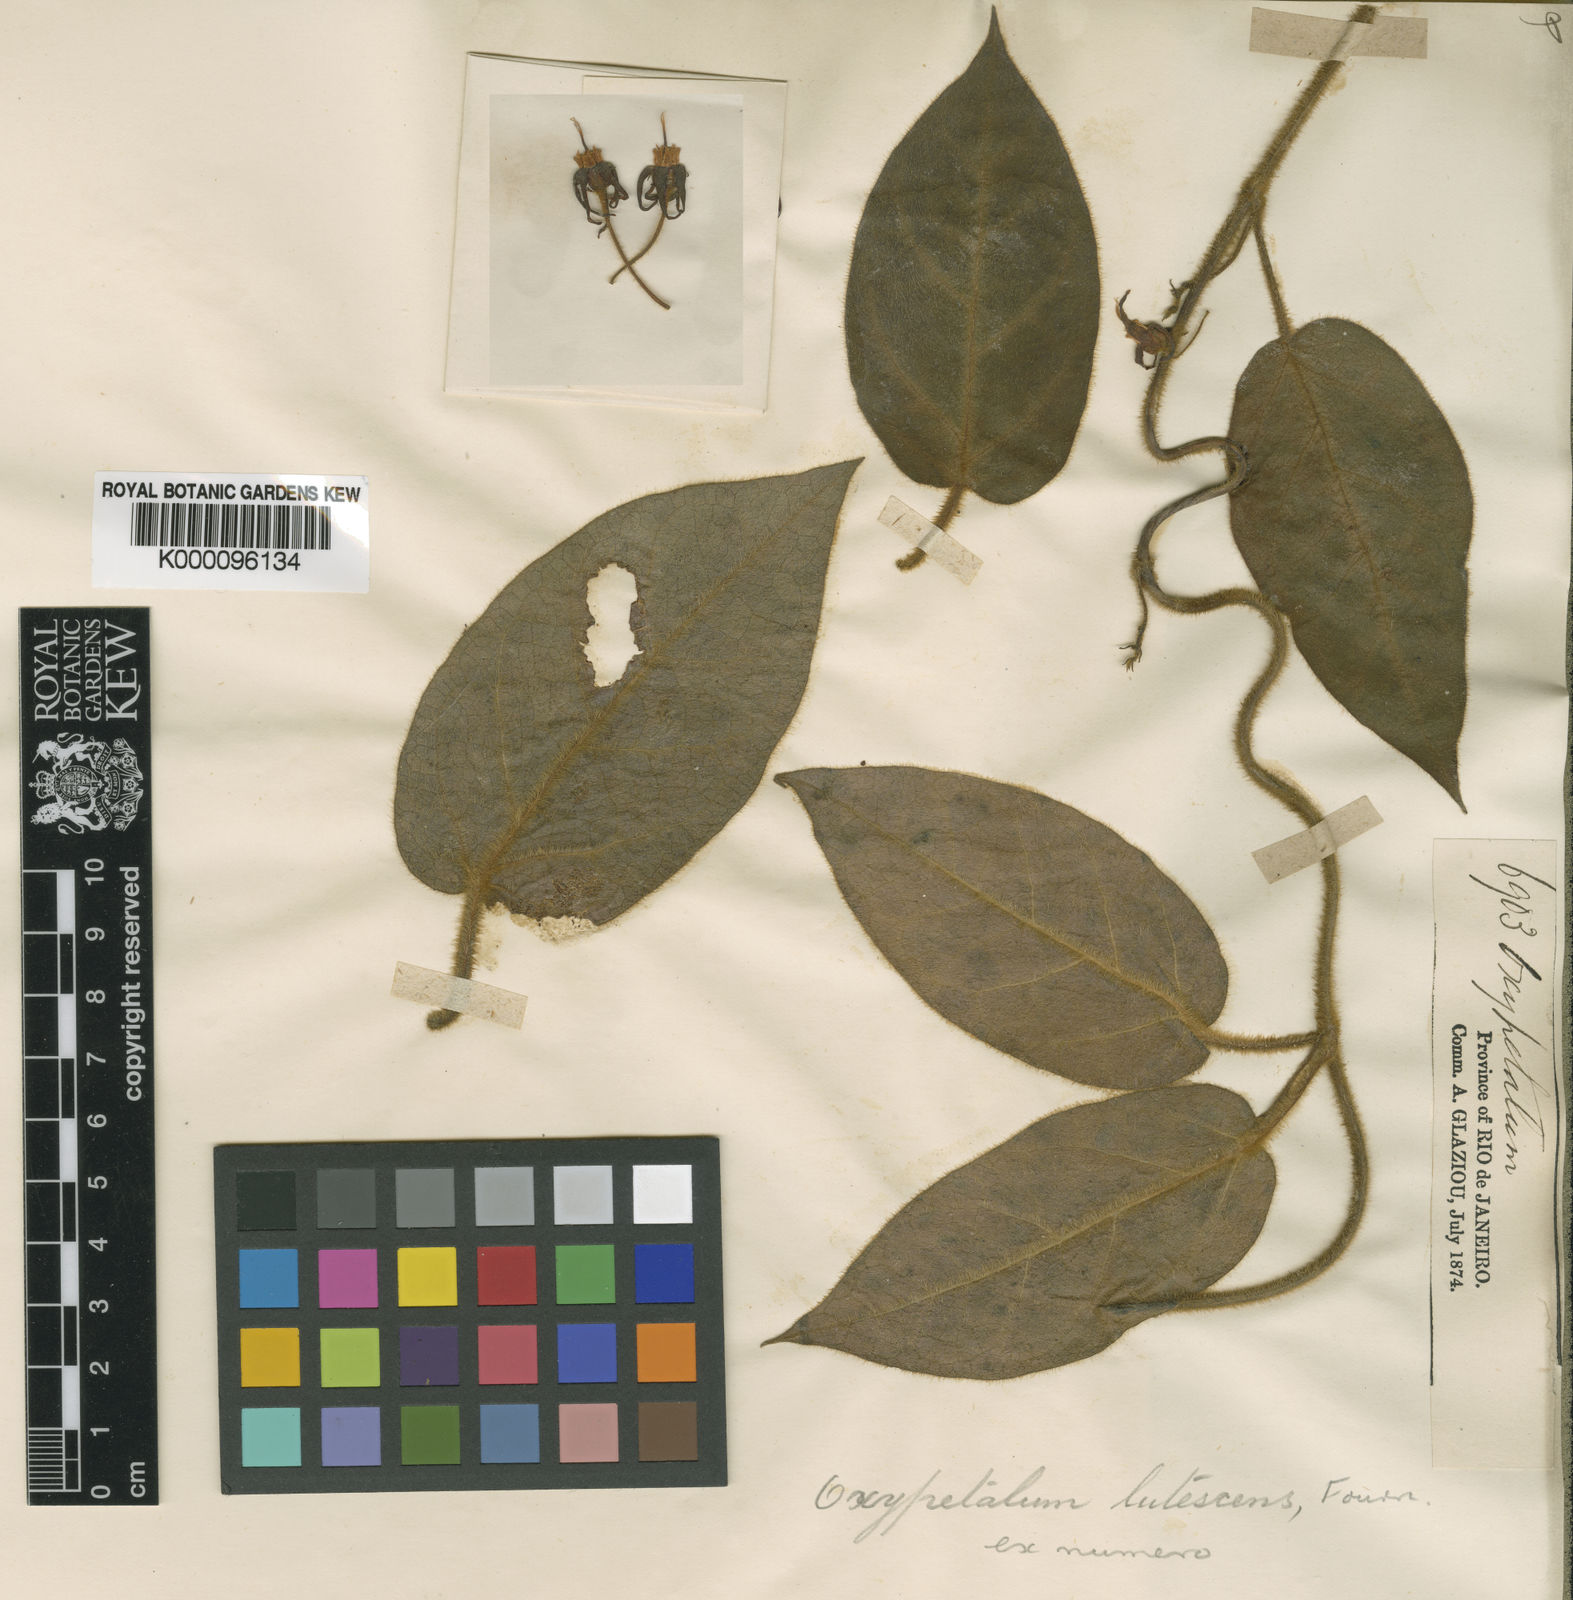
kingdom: Plantae
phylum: Tracheophyta
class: Magnoliopsida
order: Gentianales
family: Apocynaceae
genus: Oxypetalum
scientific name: Oxypetalum lutescens
